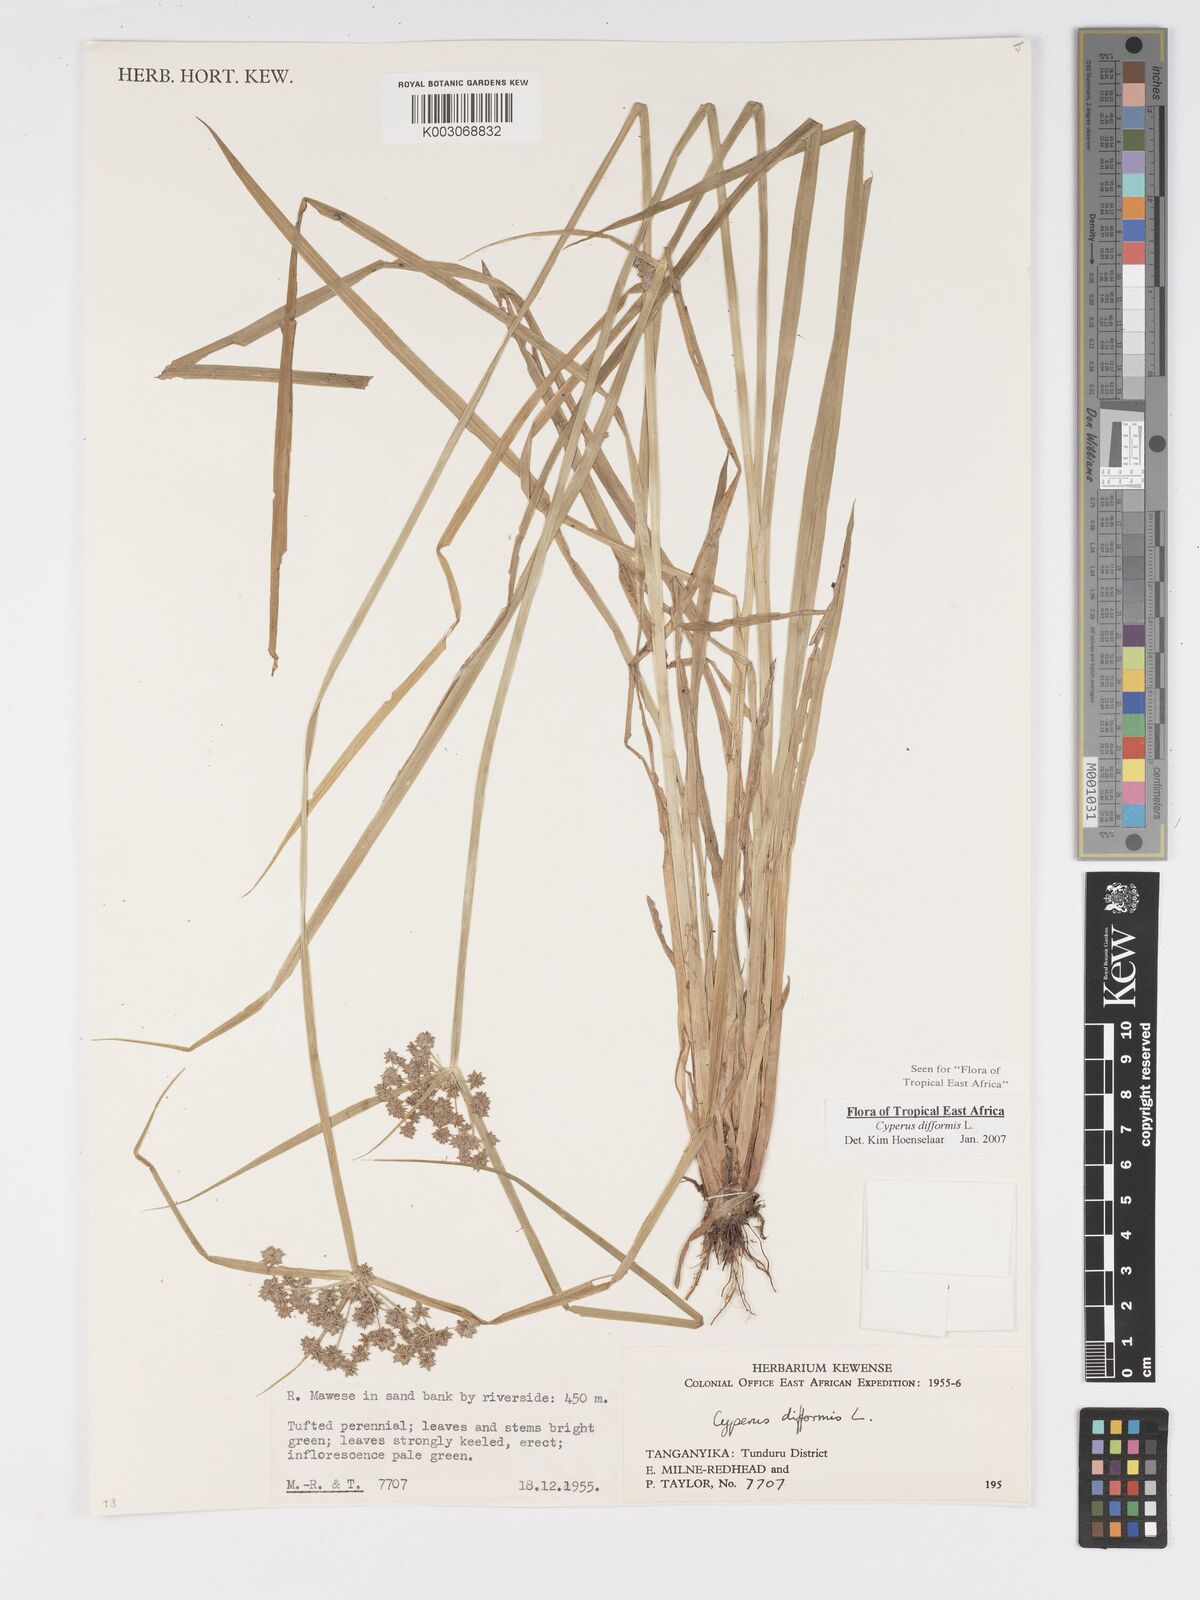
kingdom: Plantae
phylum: Tracheophyta
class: Liliopsida
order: Poales
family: Cyperaceae
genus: Cyperus
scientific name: Cyperus difformis
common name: Variable flatsedge
